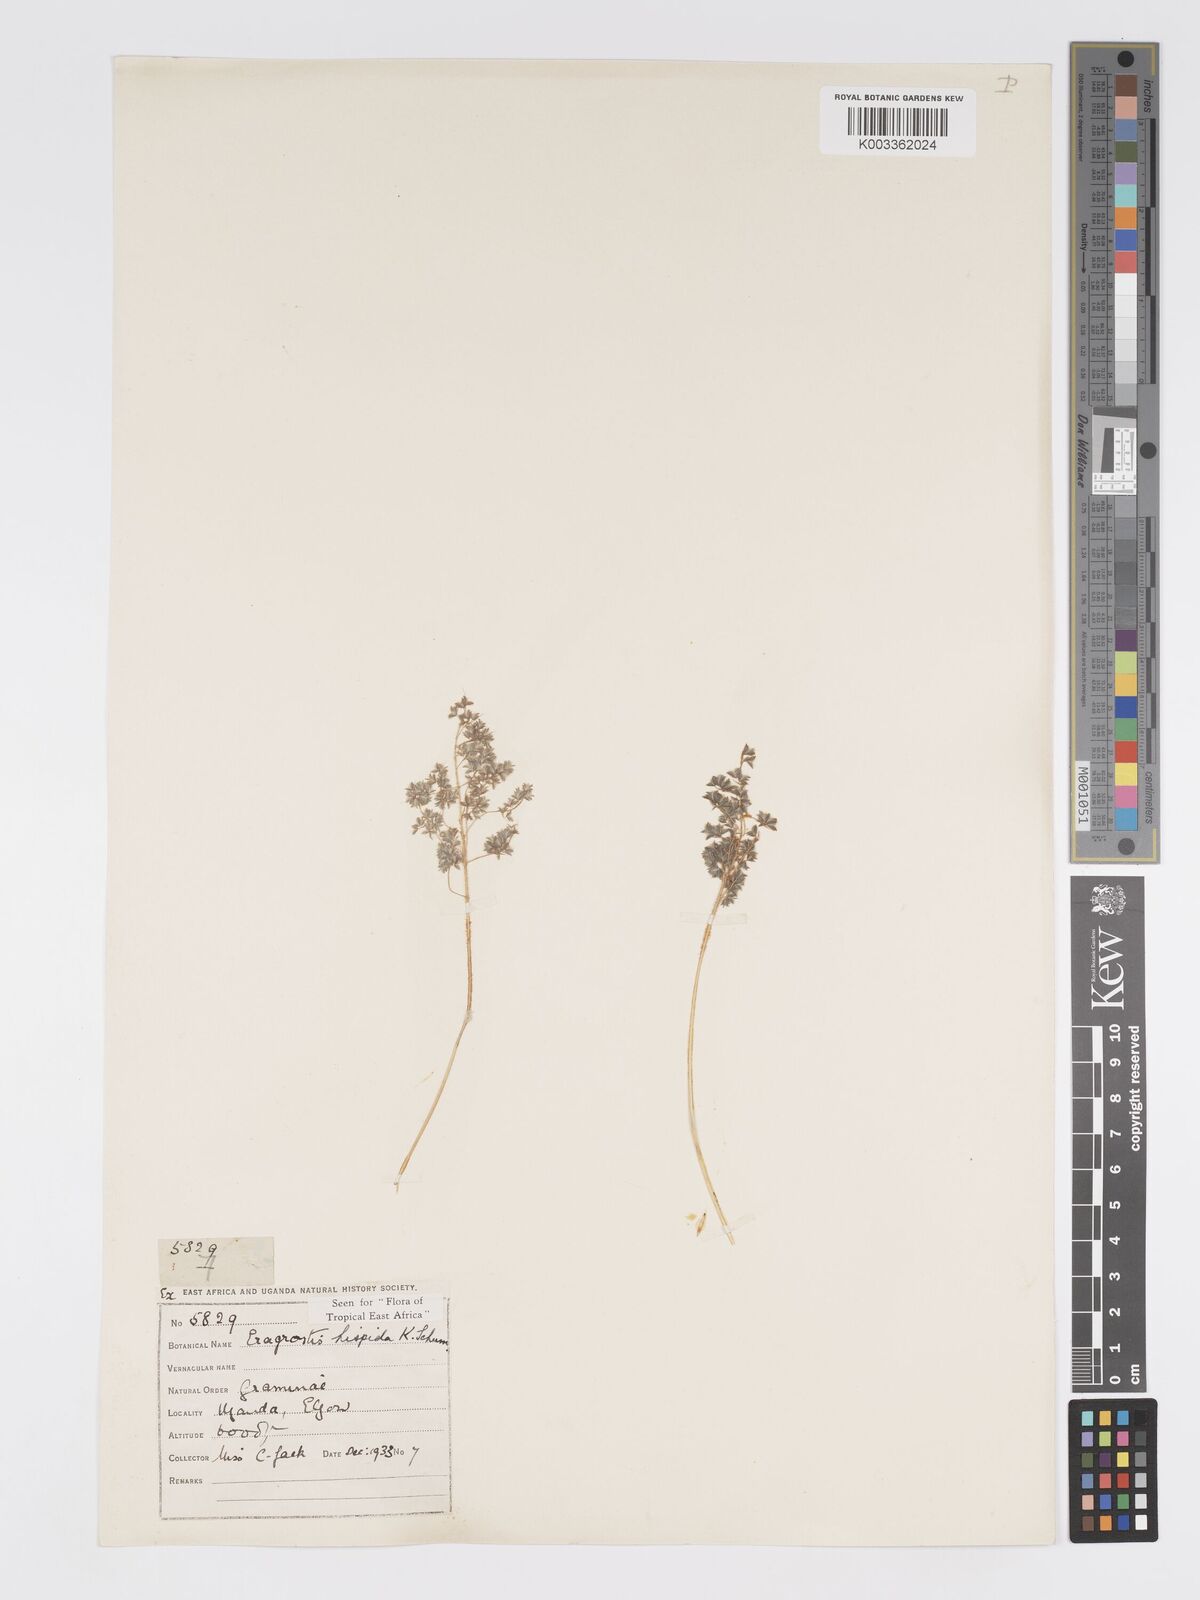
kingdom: Plantae
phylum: Tracheophyta
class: Liliopsida
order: Poales
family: Poaceae
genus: Eragrostis
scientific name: Eragrostis hispida
